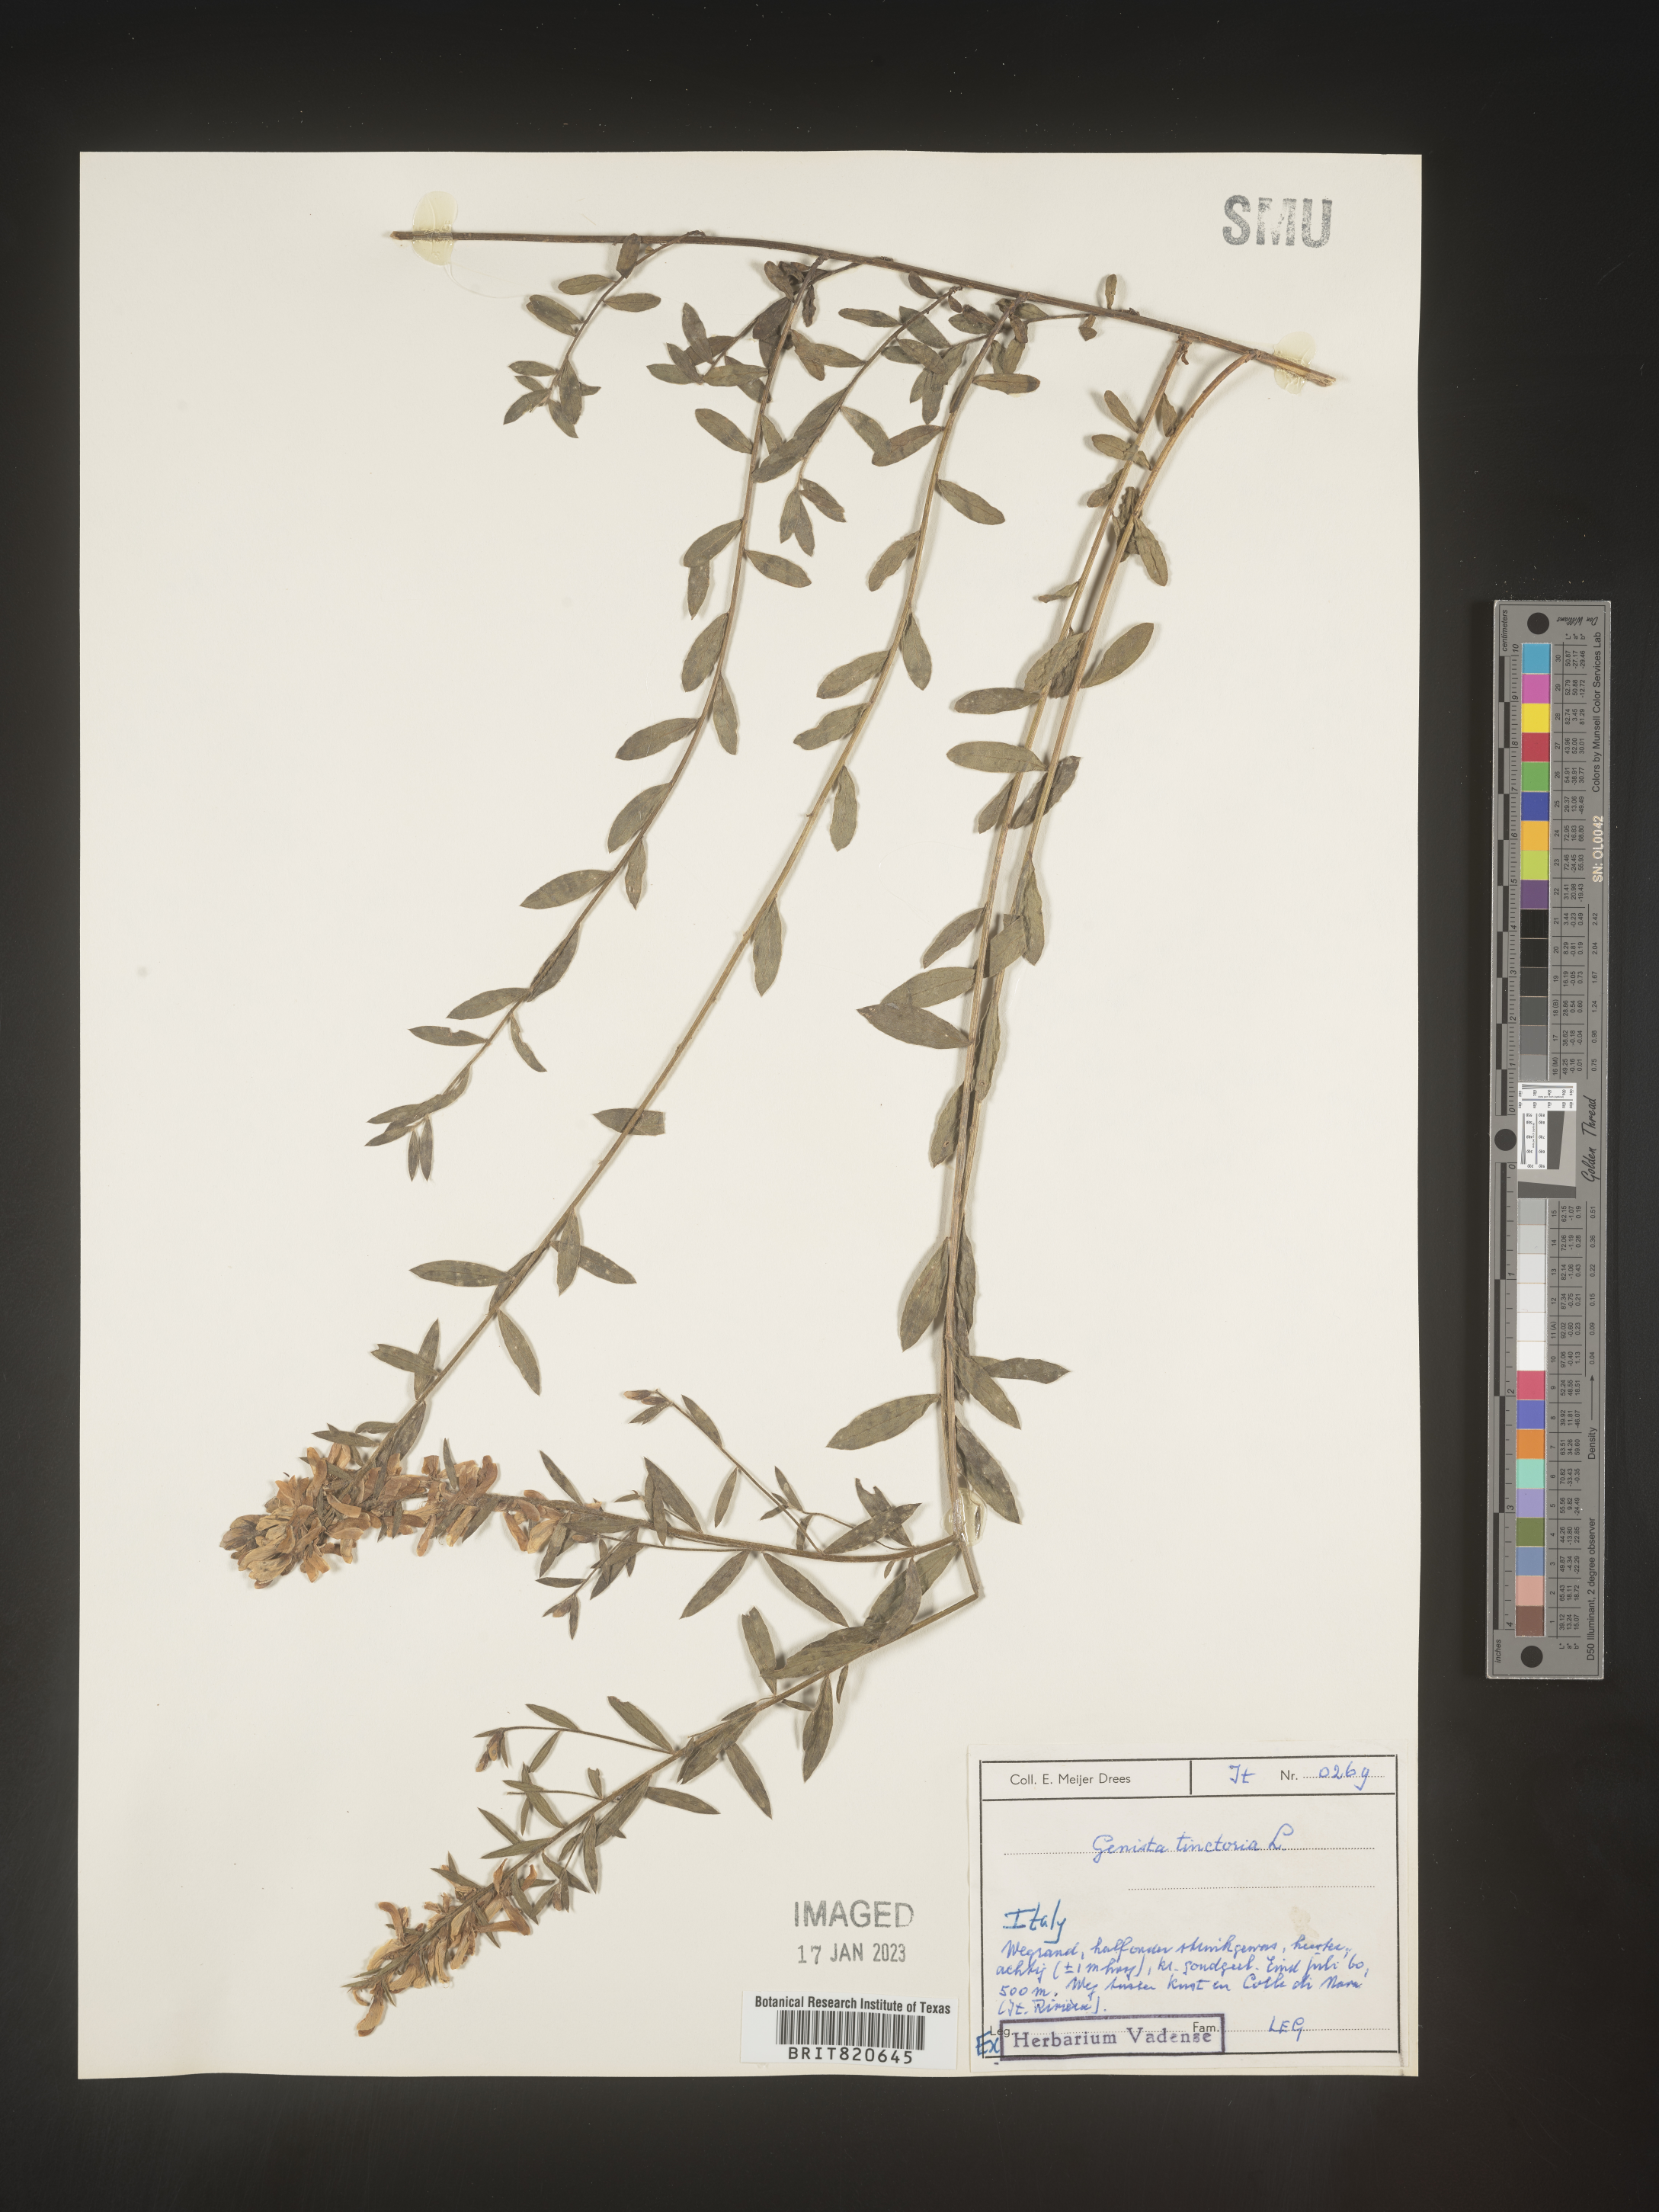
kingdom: Plantae
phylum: Tracheophyta
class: Magnoliopsida
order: Fabales
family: Fabaceae
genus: Genista
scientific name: Genista tinctoria
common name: Dyer's greenweed
